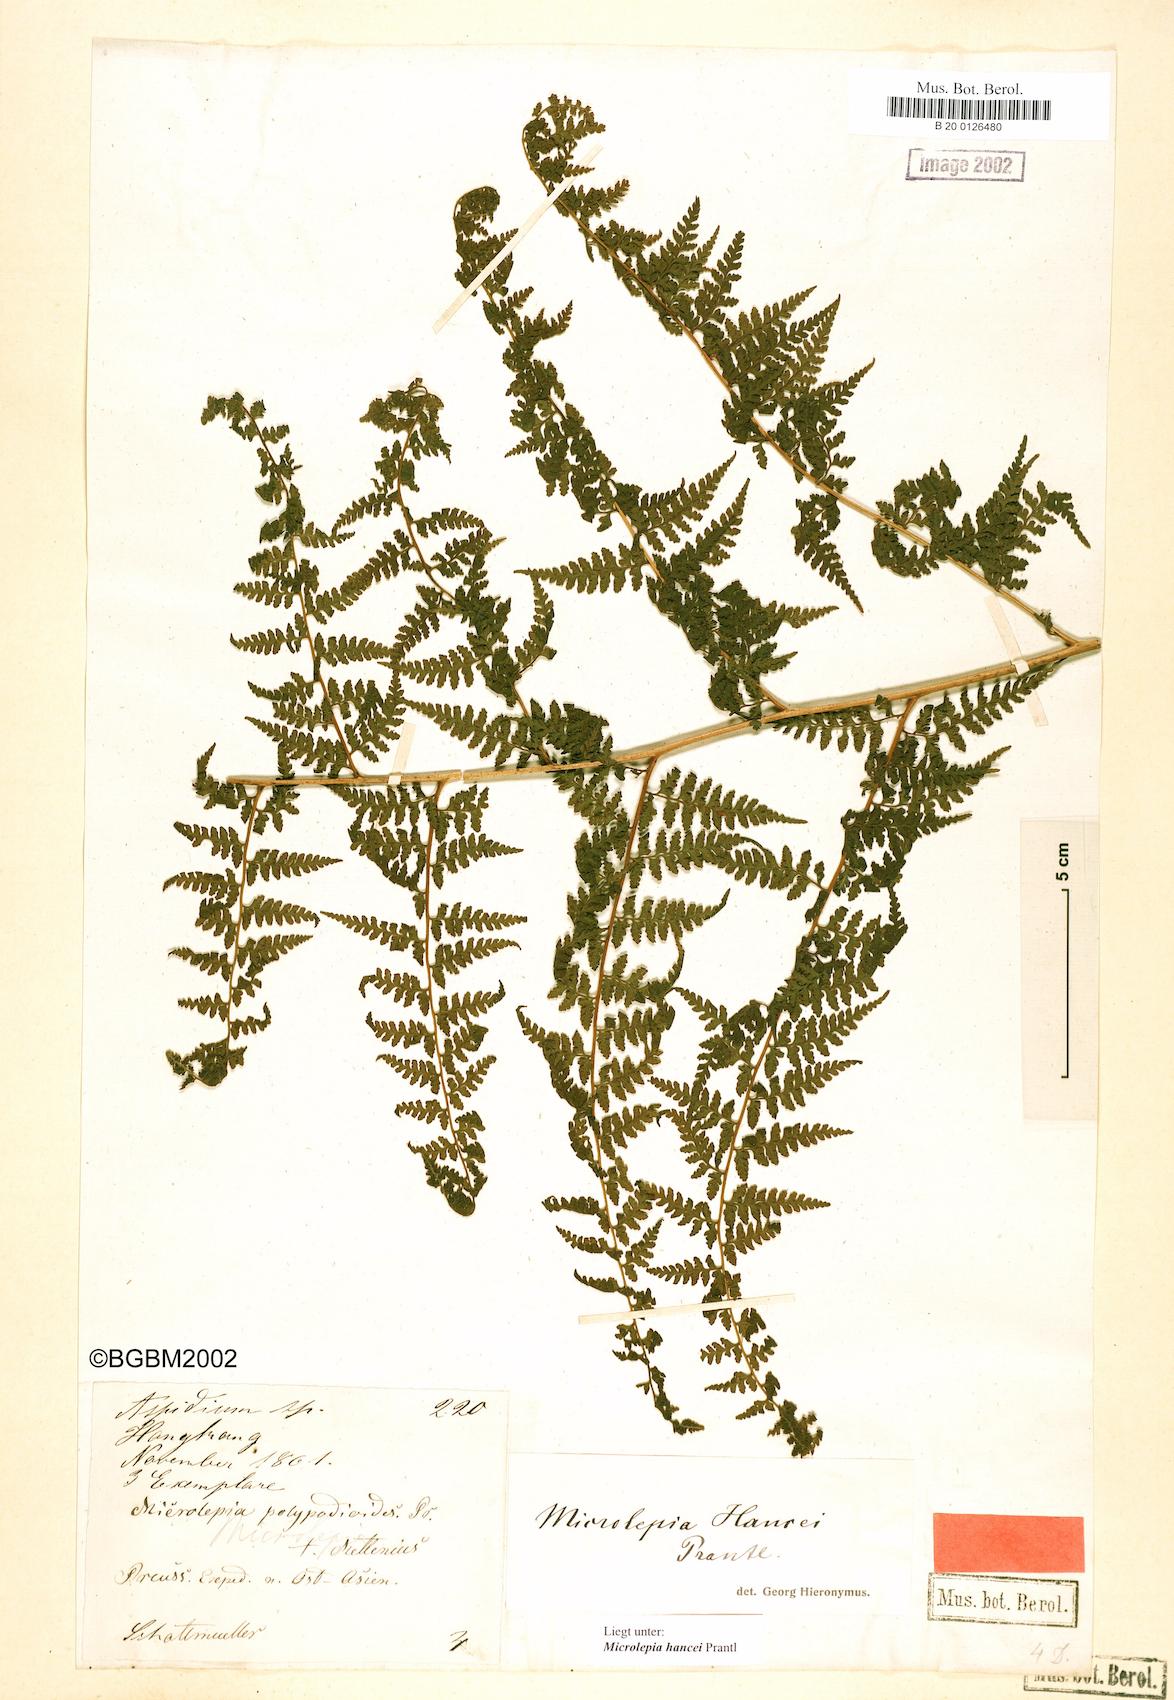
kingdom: Plantae
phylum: Tracheophyta
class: Polypodiopsida
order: Polypodiales
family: Dennstaedtiaceae
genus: Microlepia
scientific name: Microlepia nepalensis
